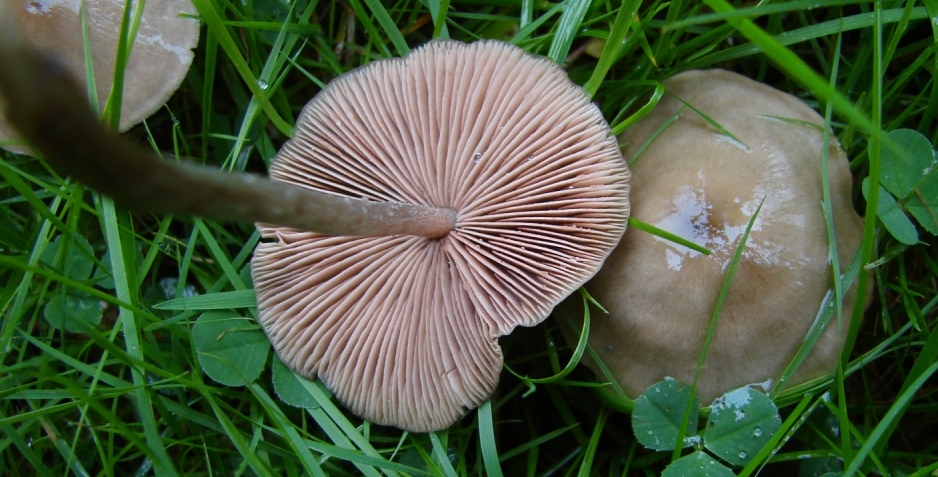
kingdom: Fungi
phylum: Basidiomycota
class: Agaricomycetes
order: Agaricales
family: Entolomataceae
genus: Entoloma
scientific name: Entoloma conferendum
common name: stjernesporet rødblad
